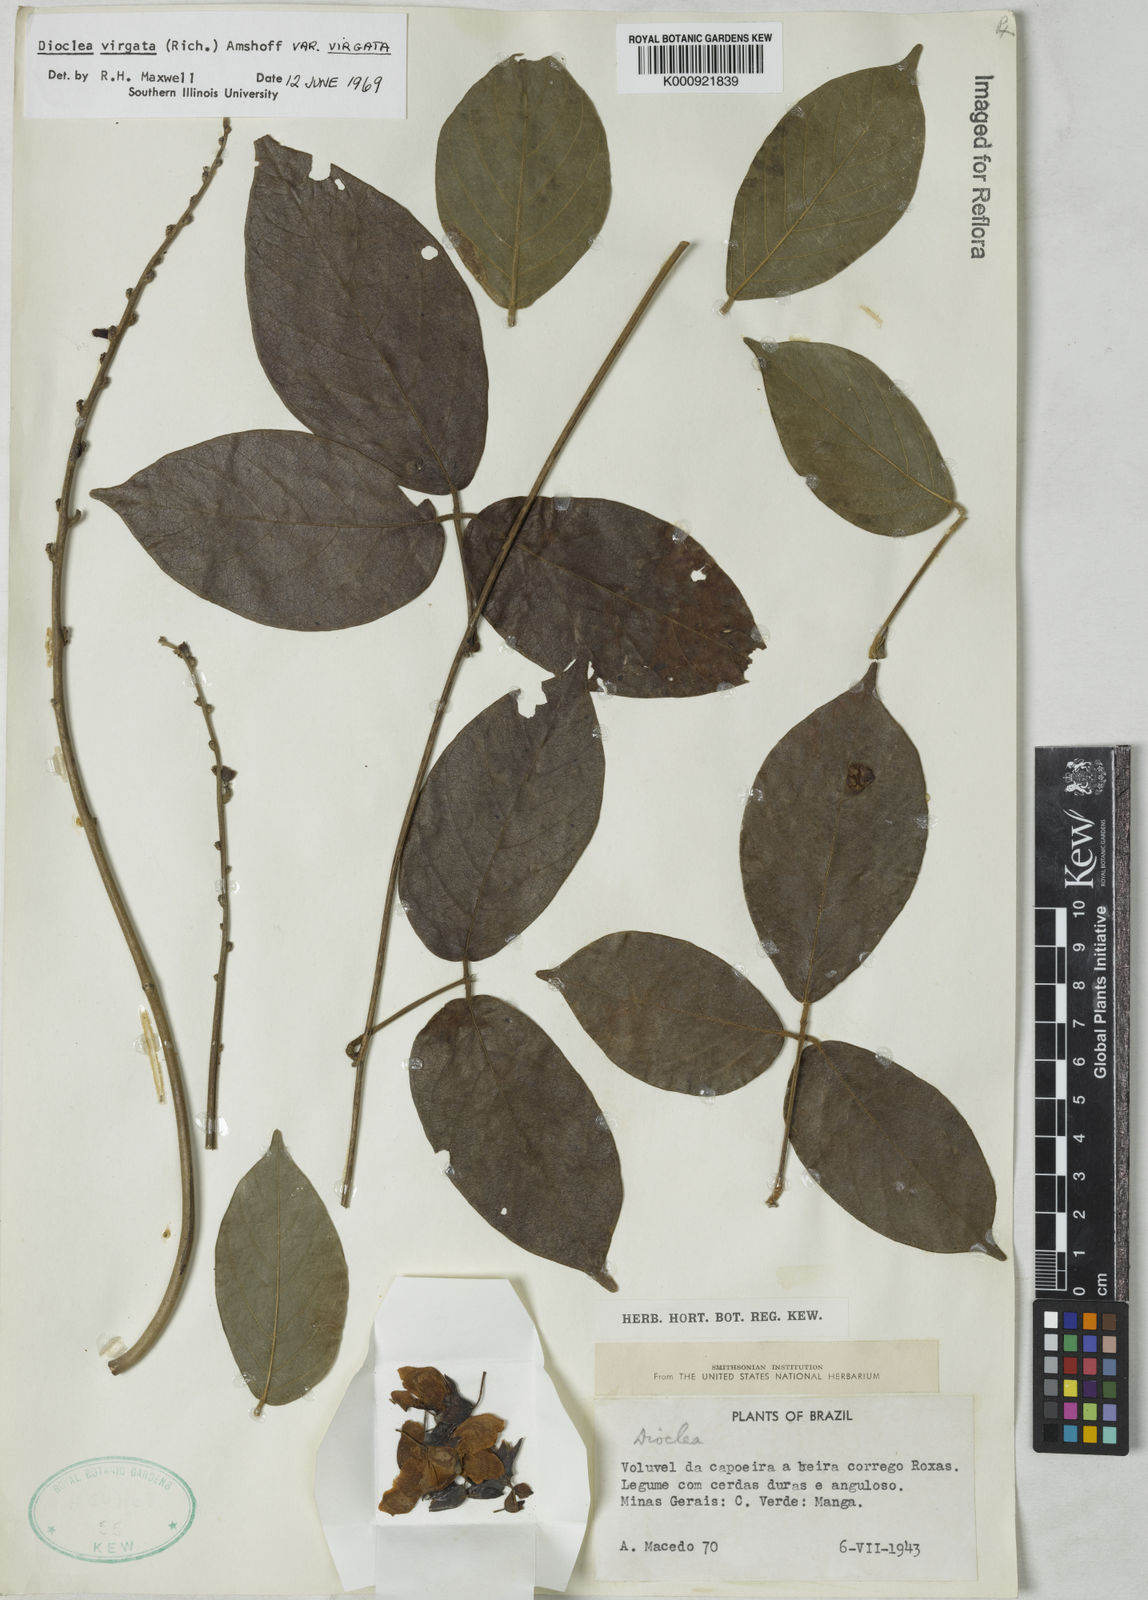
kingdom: Plantae
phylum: Tracheophyta
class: Magnoliopsida
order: Fabales
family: Fabaceae
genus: Dioclea
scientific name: Dioclea virgata
